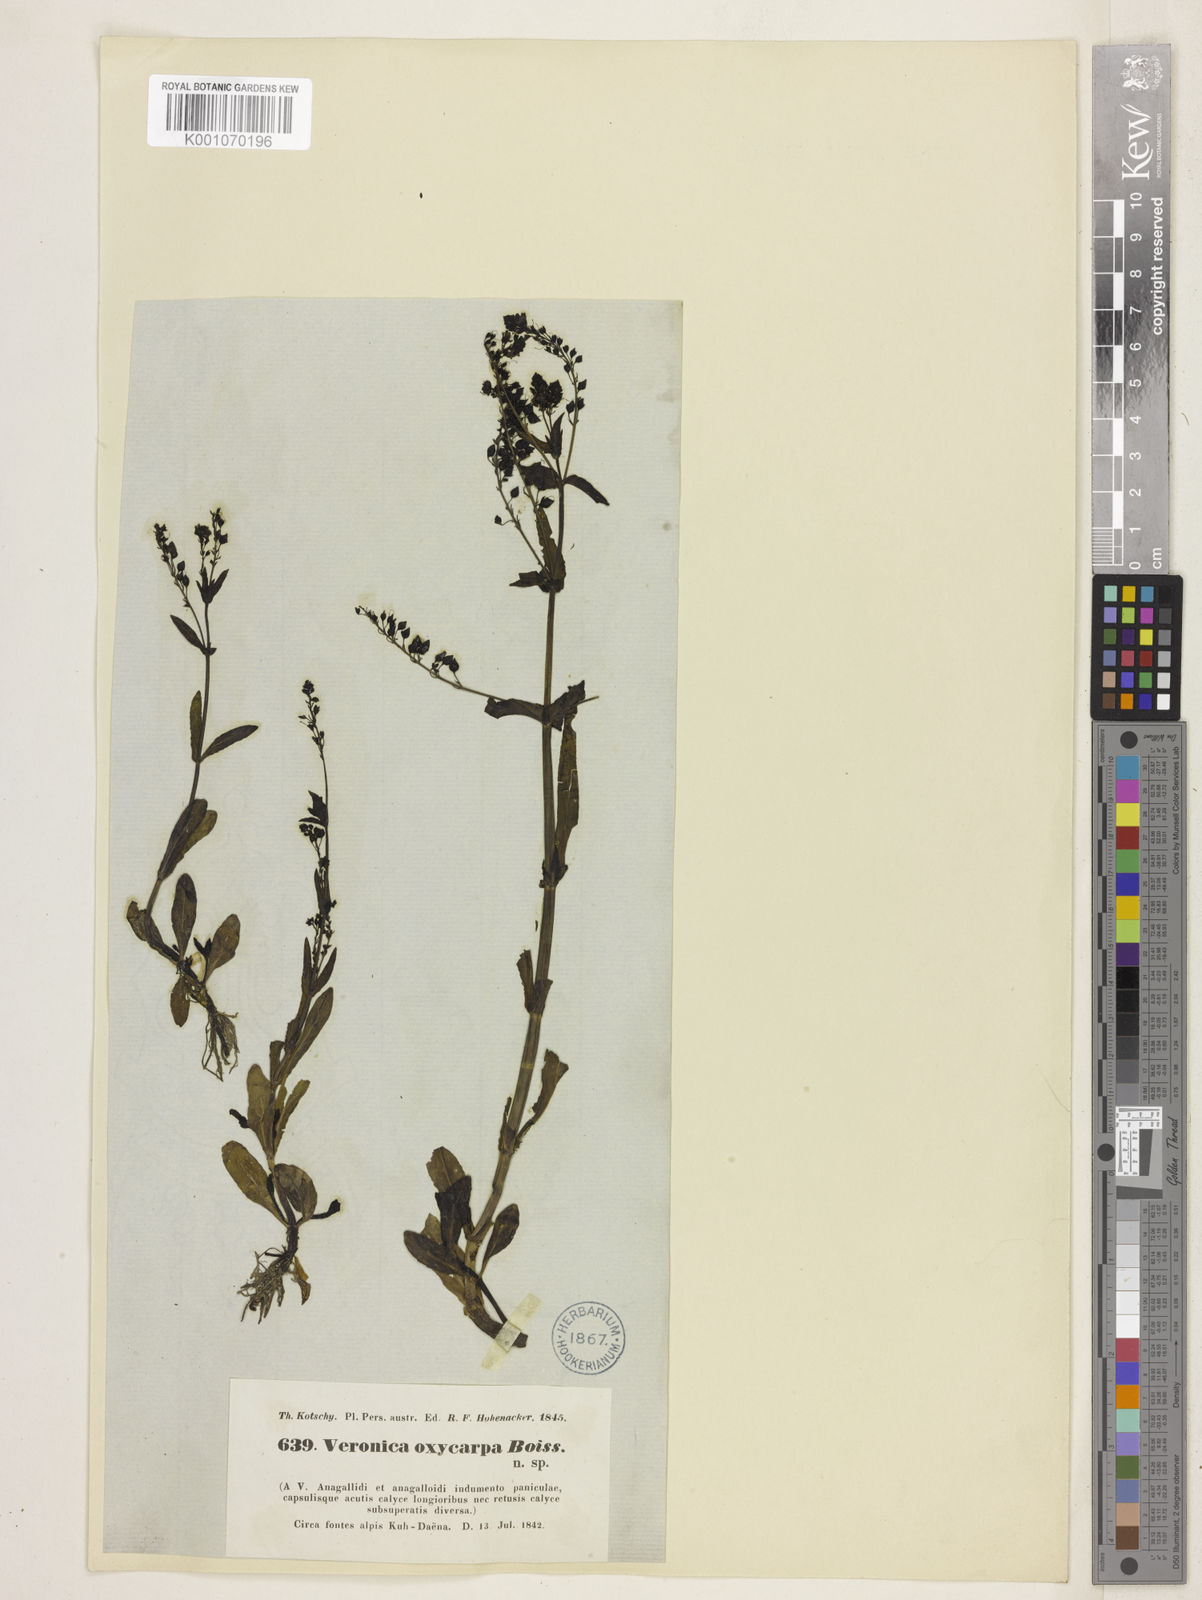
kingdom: Plantae
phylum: Tracheophyta
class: Magnoliopsida
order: Lamiales
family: Plantaginaceae
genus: Veronica
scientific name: Veronica oxycarpa
